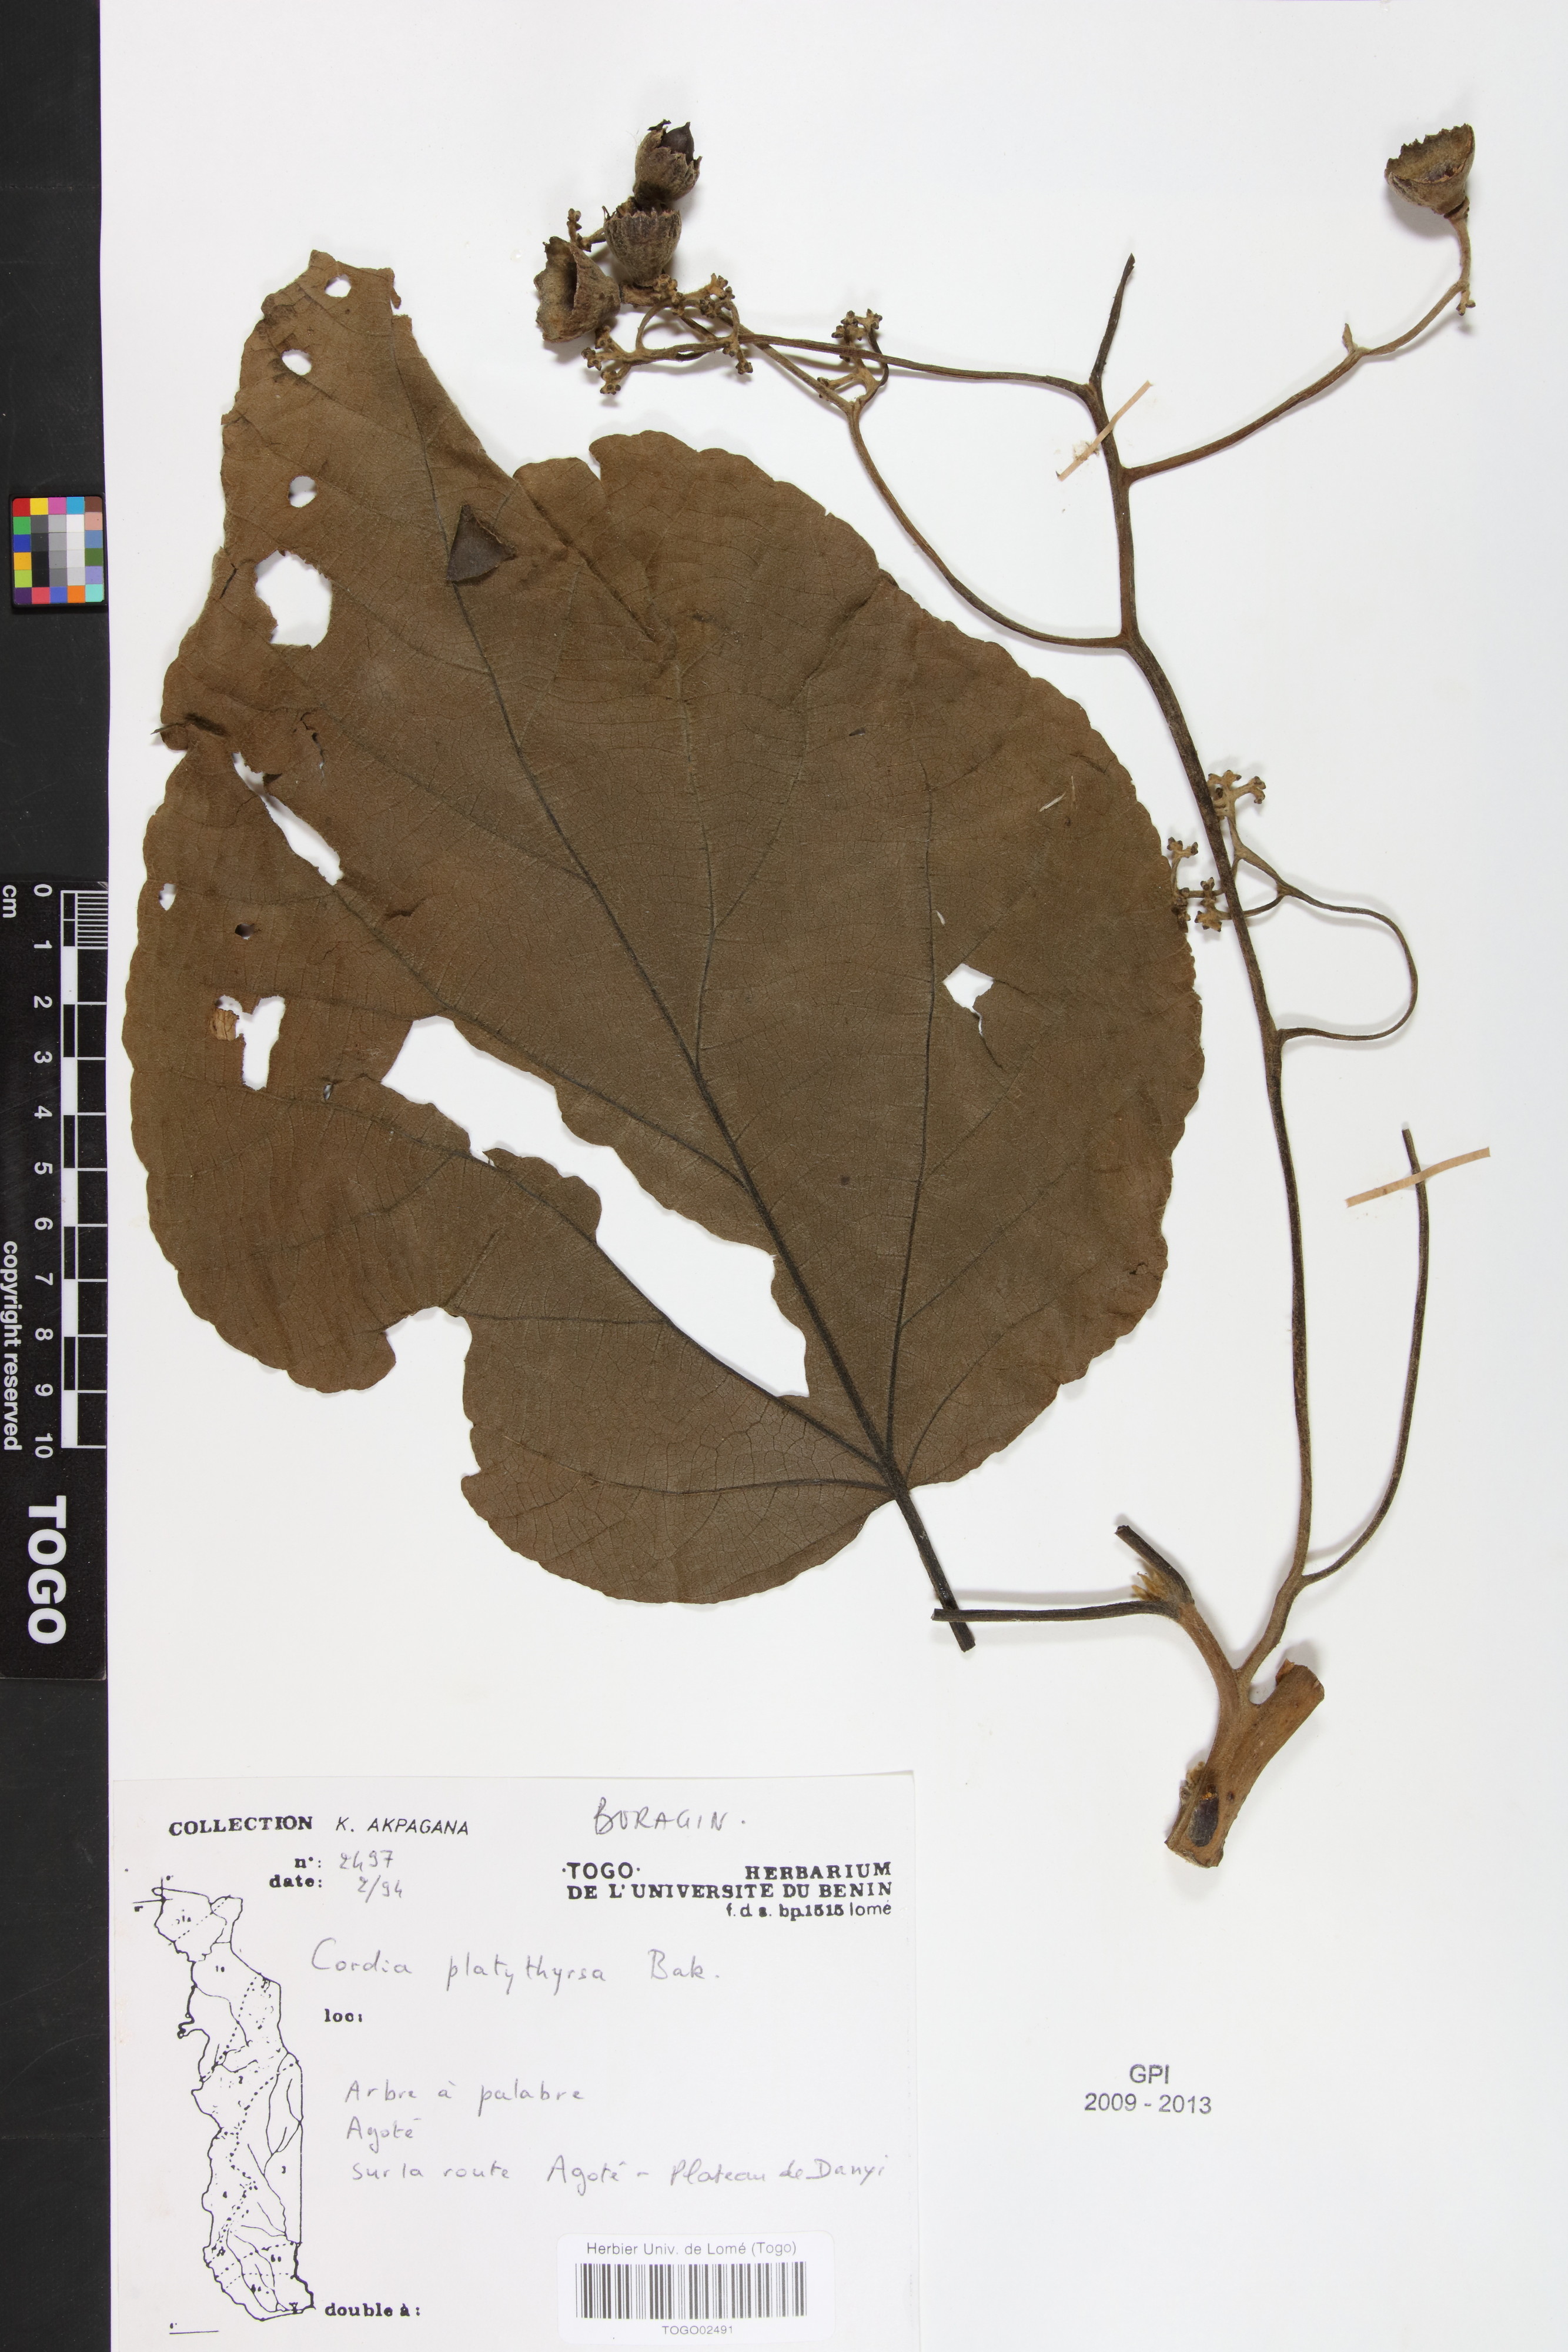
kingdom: Plantae
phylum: Tracheophyta
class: Magnoliopsida
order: Boraginales
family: Cordiaceae
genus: Cordia
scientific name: Cordia platythyrsa
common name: West african cordia
